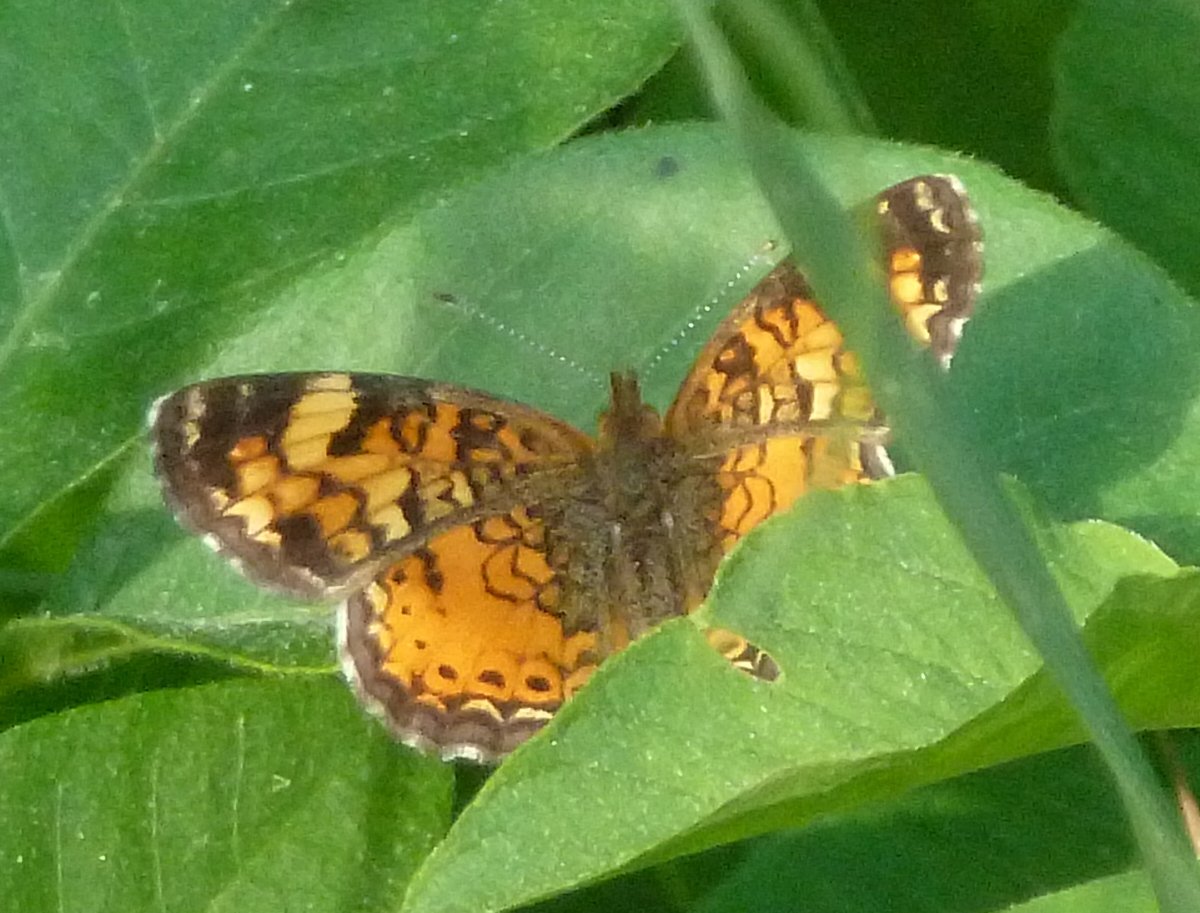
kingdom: Animalia
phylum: Arthropoda
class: Insecta
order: Lepidoptera
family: Nymphalidae
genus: Phyciodes
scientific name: Phyciodes tharos
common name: Pearl Crescent
